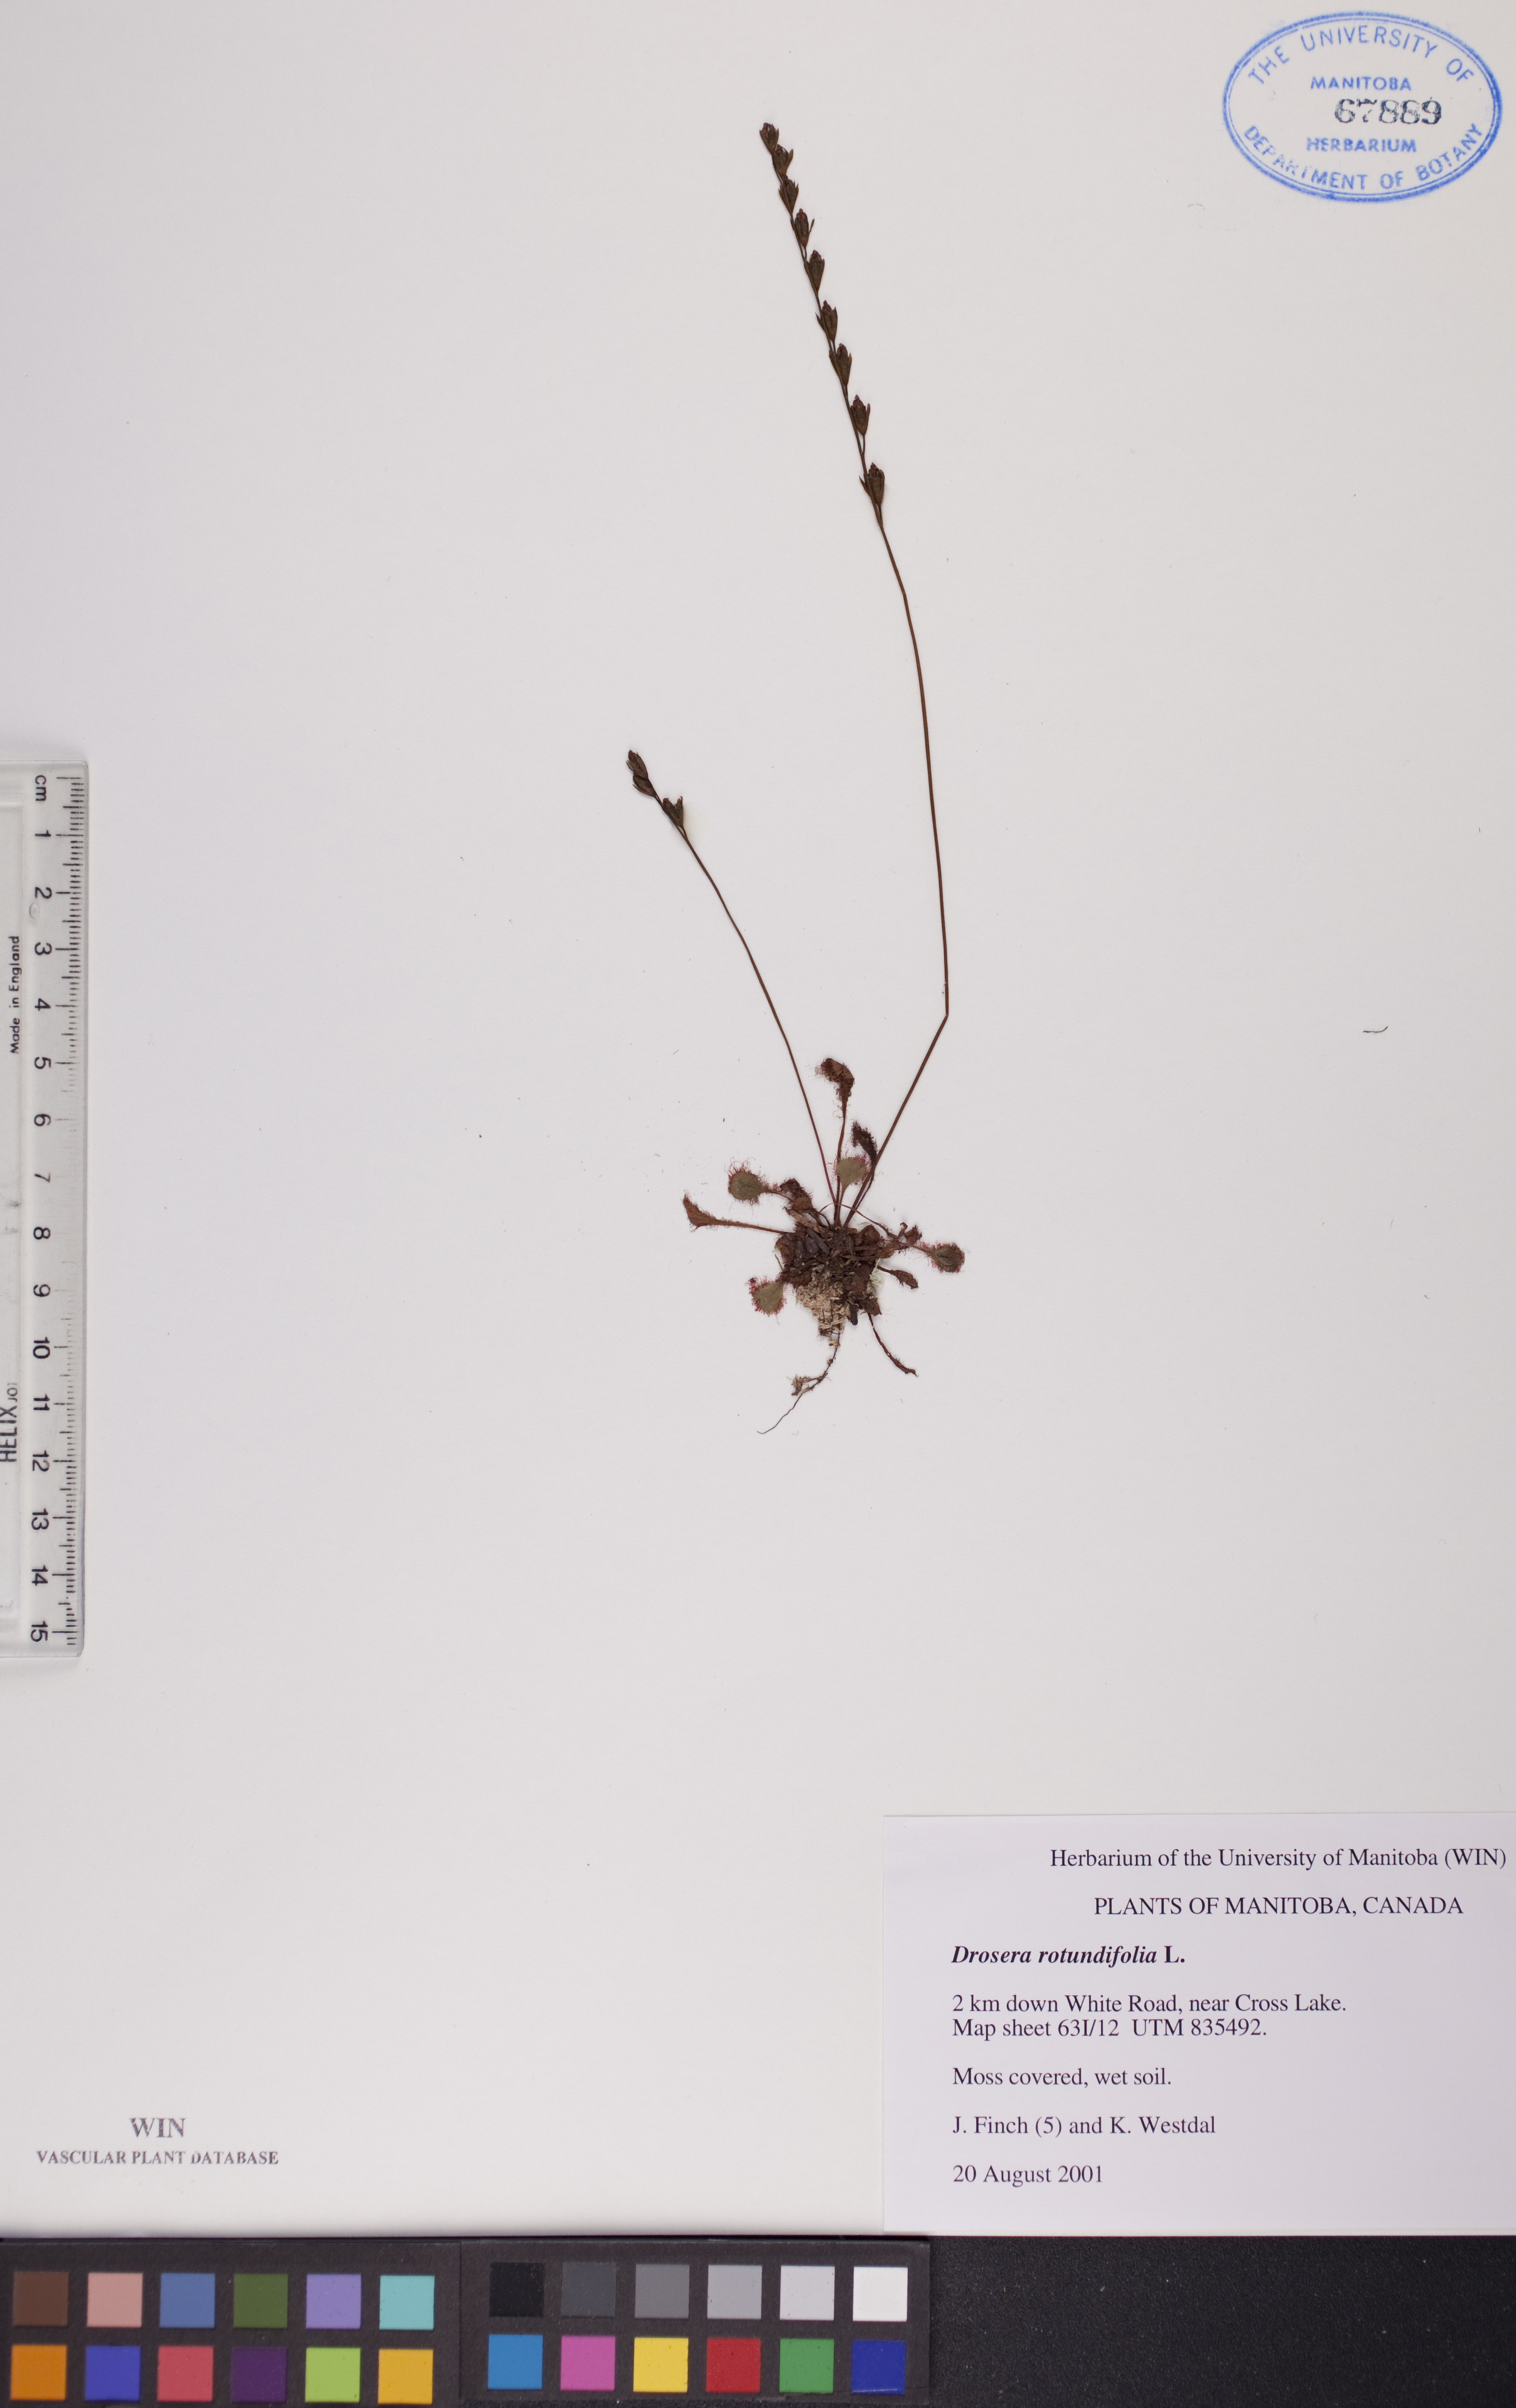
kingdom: Plantae
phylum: Tracheophyta
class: Magnoliopsida
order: Caryophyllales
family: Droseraceae
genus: Drosera
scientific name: Drosera rotundifolia
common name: Round-leaved sundew
